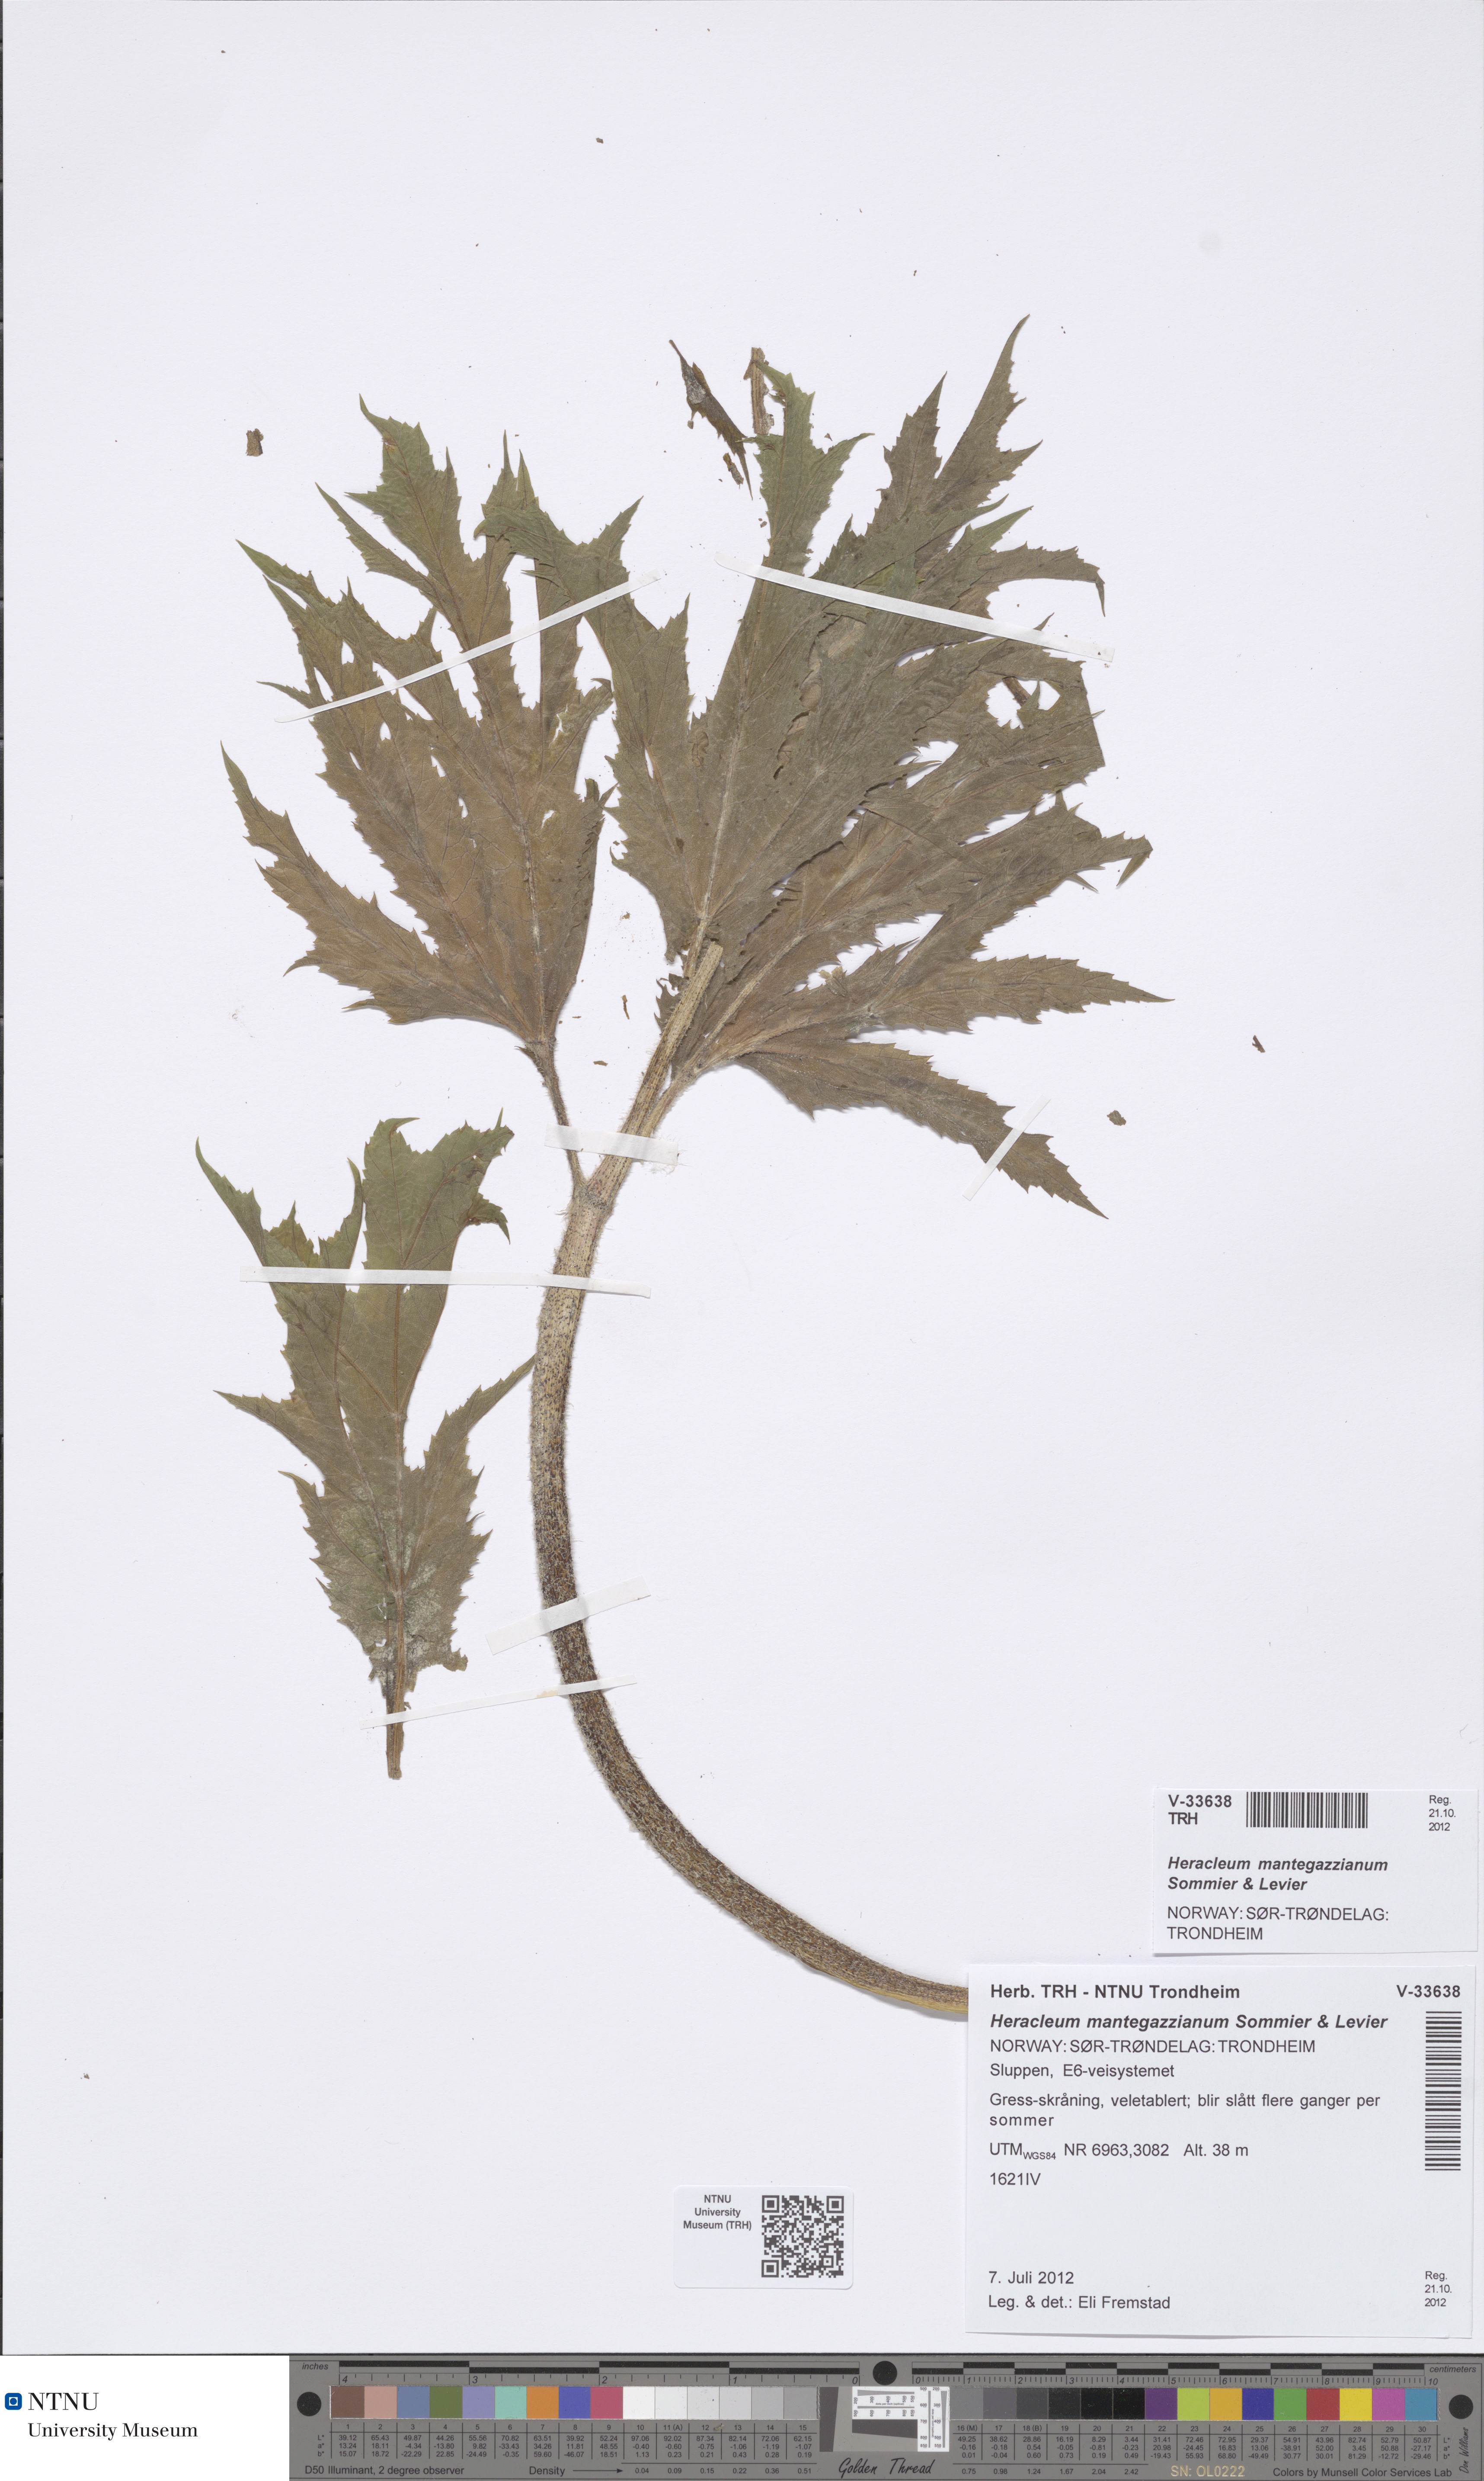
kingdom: Plantae
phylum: Tracheophyta
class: Magnoliopsida
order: Apiales
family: Apiaceae
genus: Heracleum
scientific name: Heracleum mantegazzianum
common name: Giant hogweed
